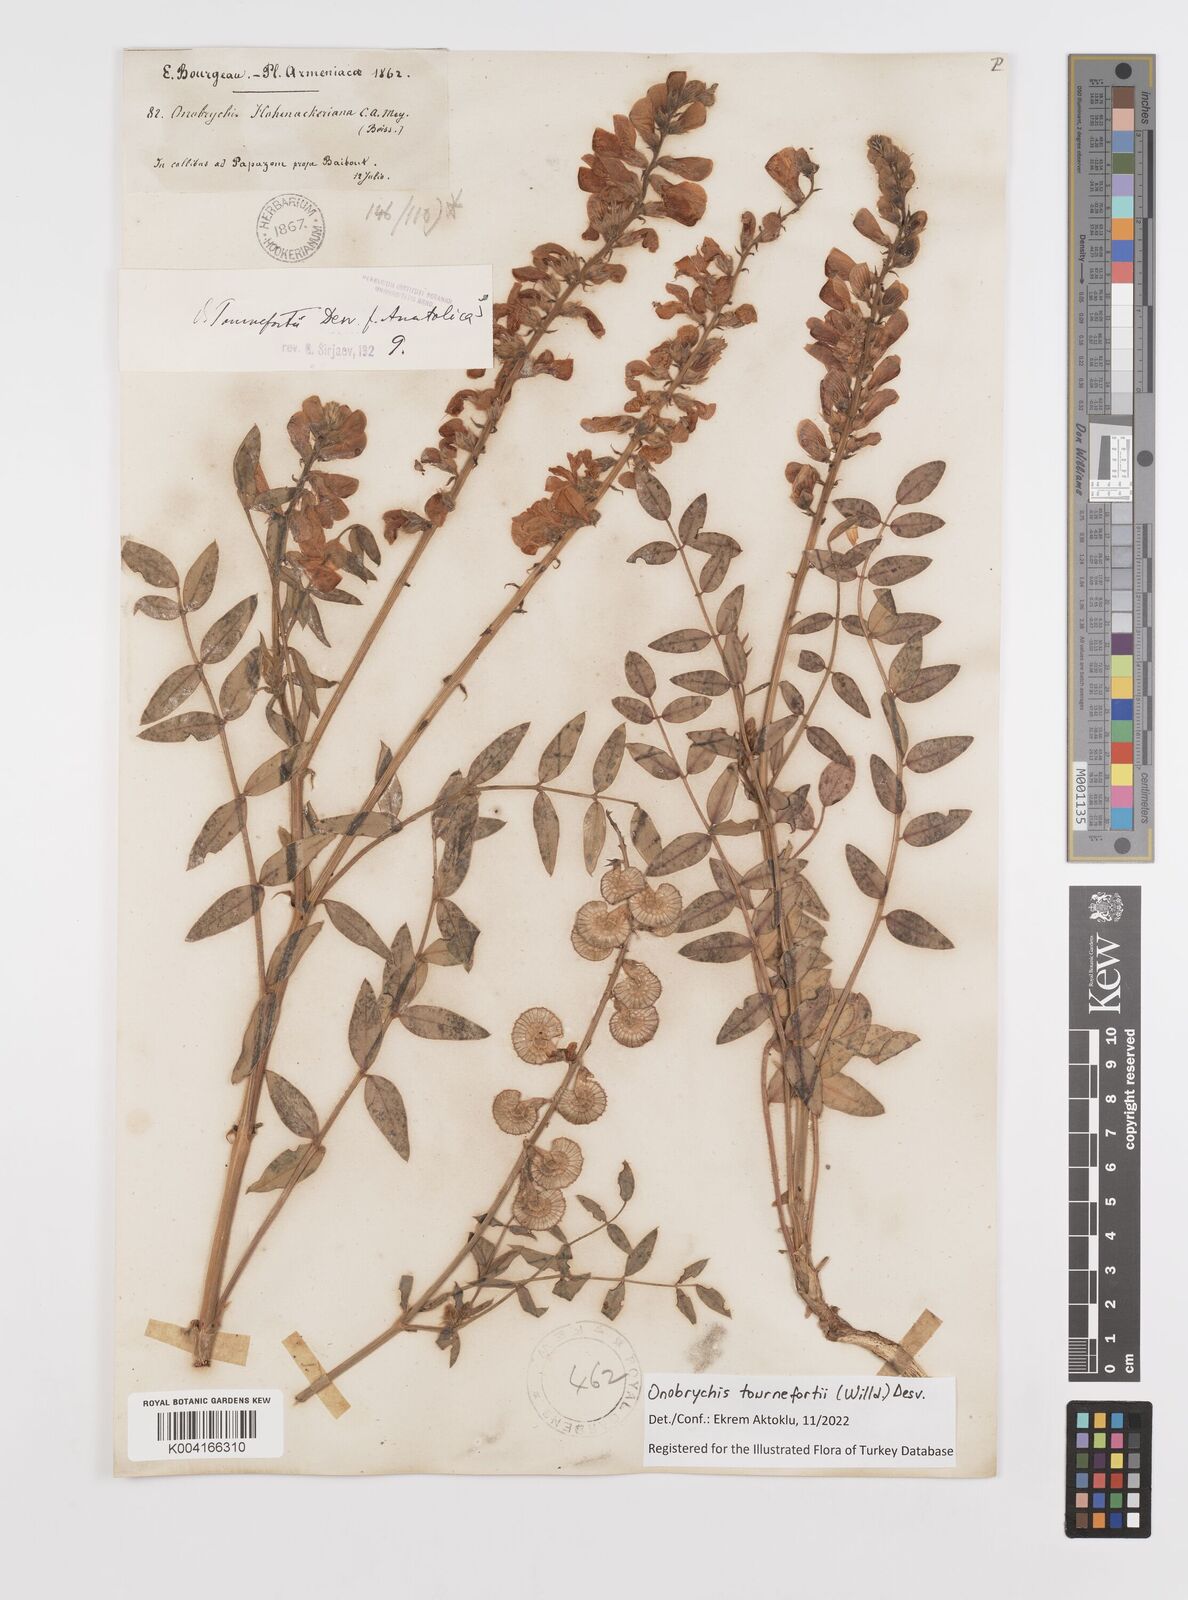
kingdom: Plantae
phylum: Tracheophyta
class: Magnoliopsida
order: Fabales
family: Fabaceae
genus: Onobrychis
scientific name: Onobrychis tournefortii
